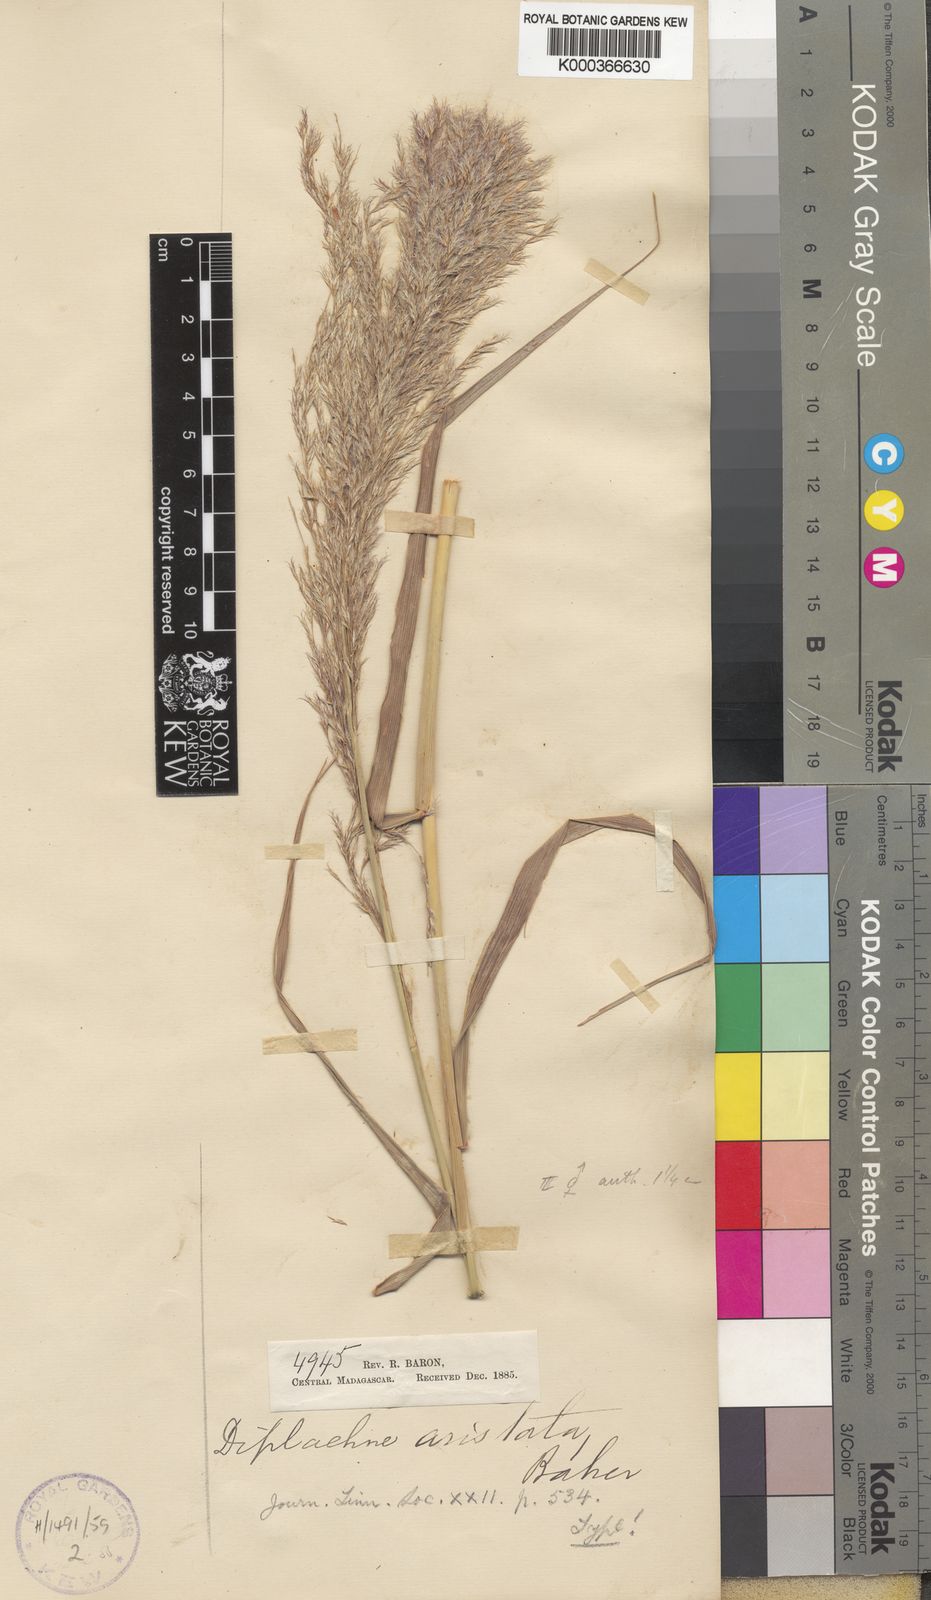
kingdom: Plantae
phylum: Tracheophyta
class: Liliopsida
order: Poales
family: Poaceae
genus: Neyraudia
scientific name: Neyraudia arundinacea
